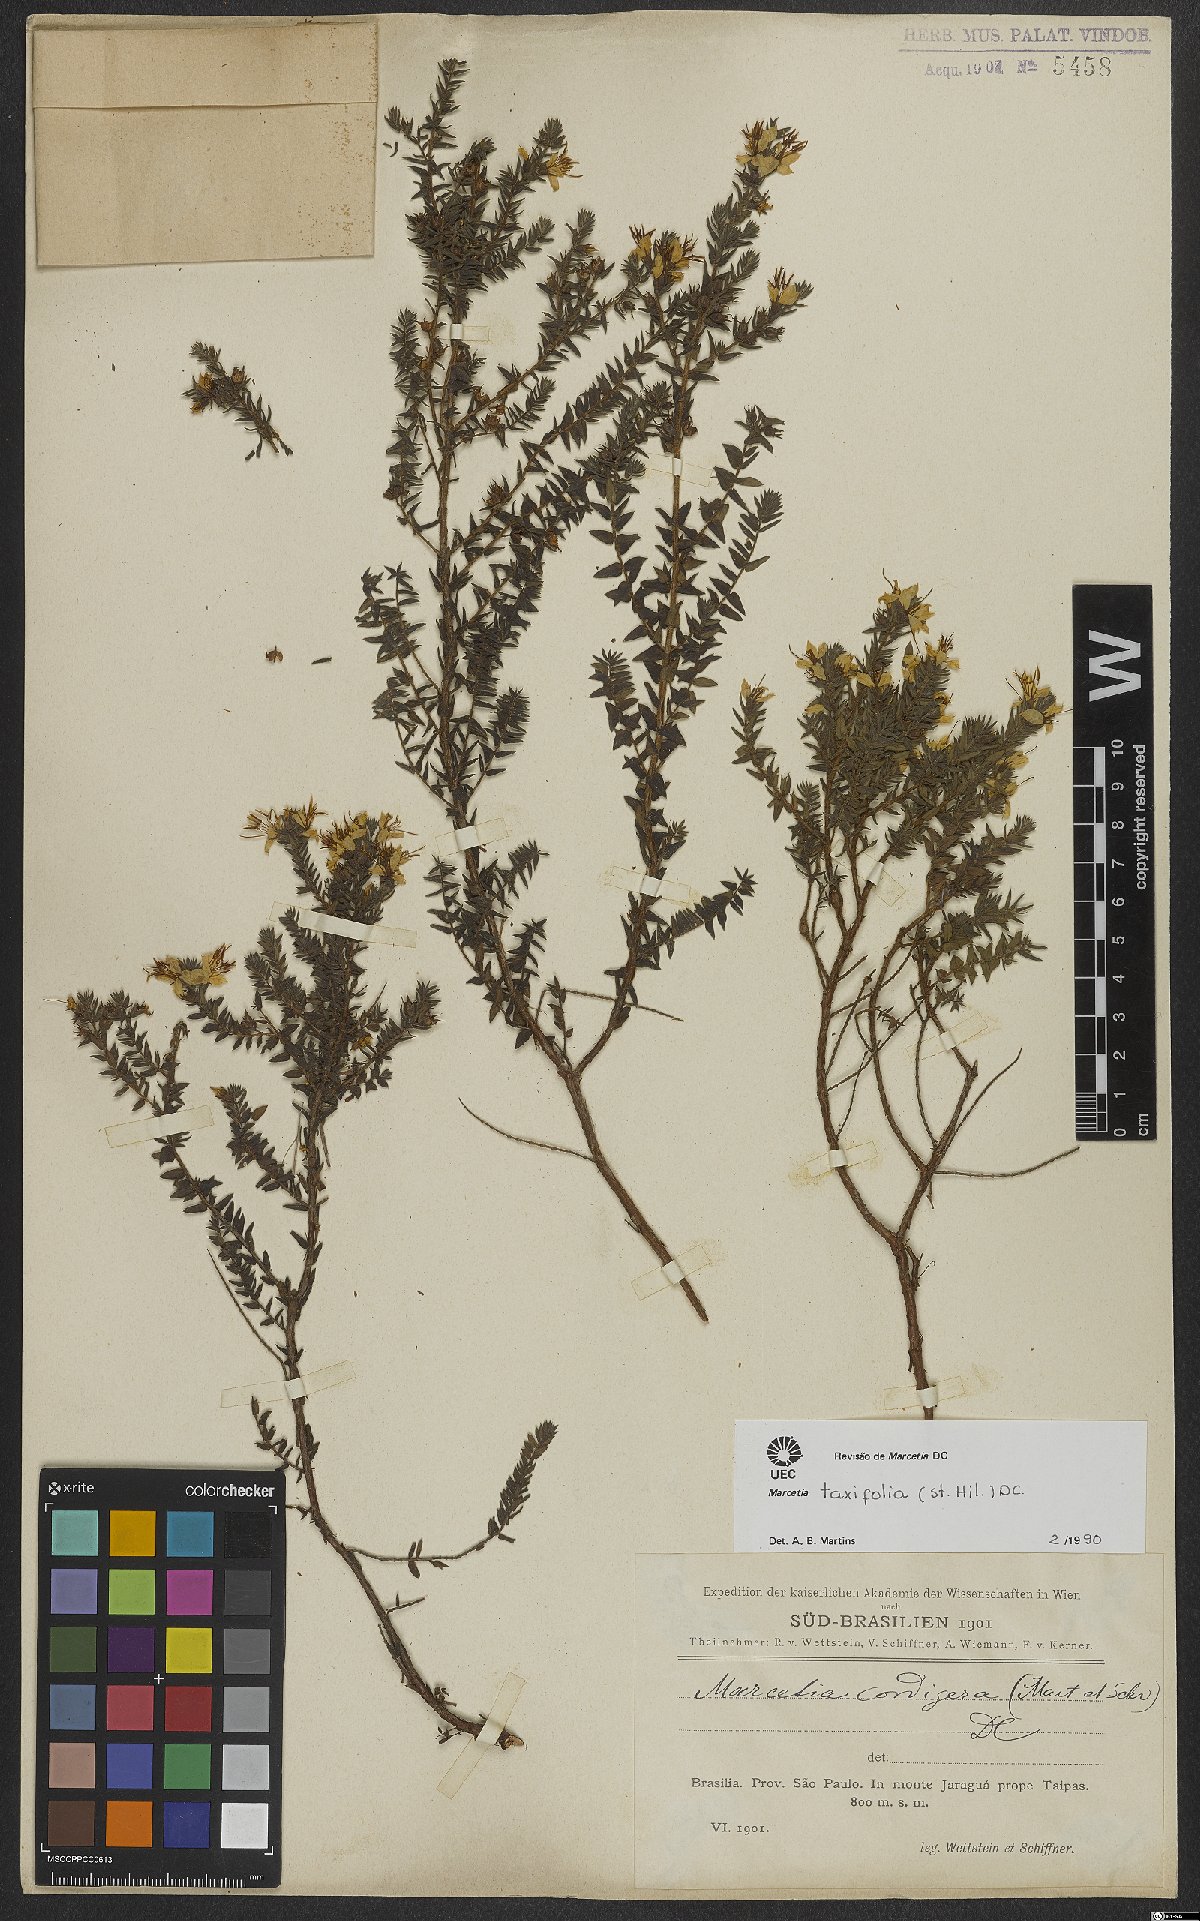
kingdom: Plantae
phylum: Tracheophyta
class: Magnoliopsida
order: Myrtales
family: Melastomataceae
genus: Marcetia
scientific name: Marcetia taxifolia
